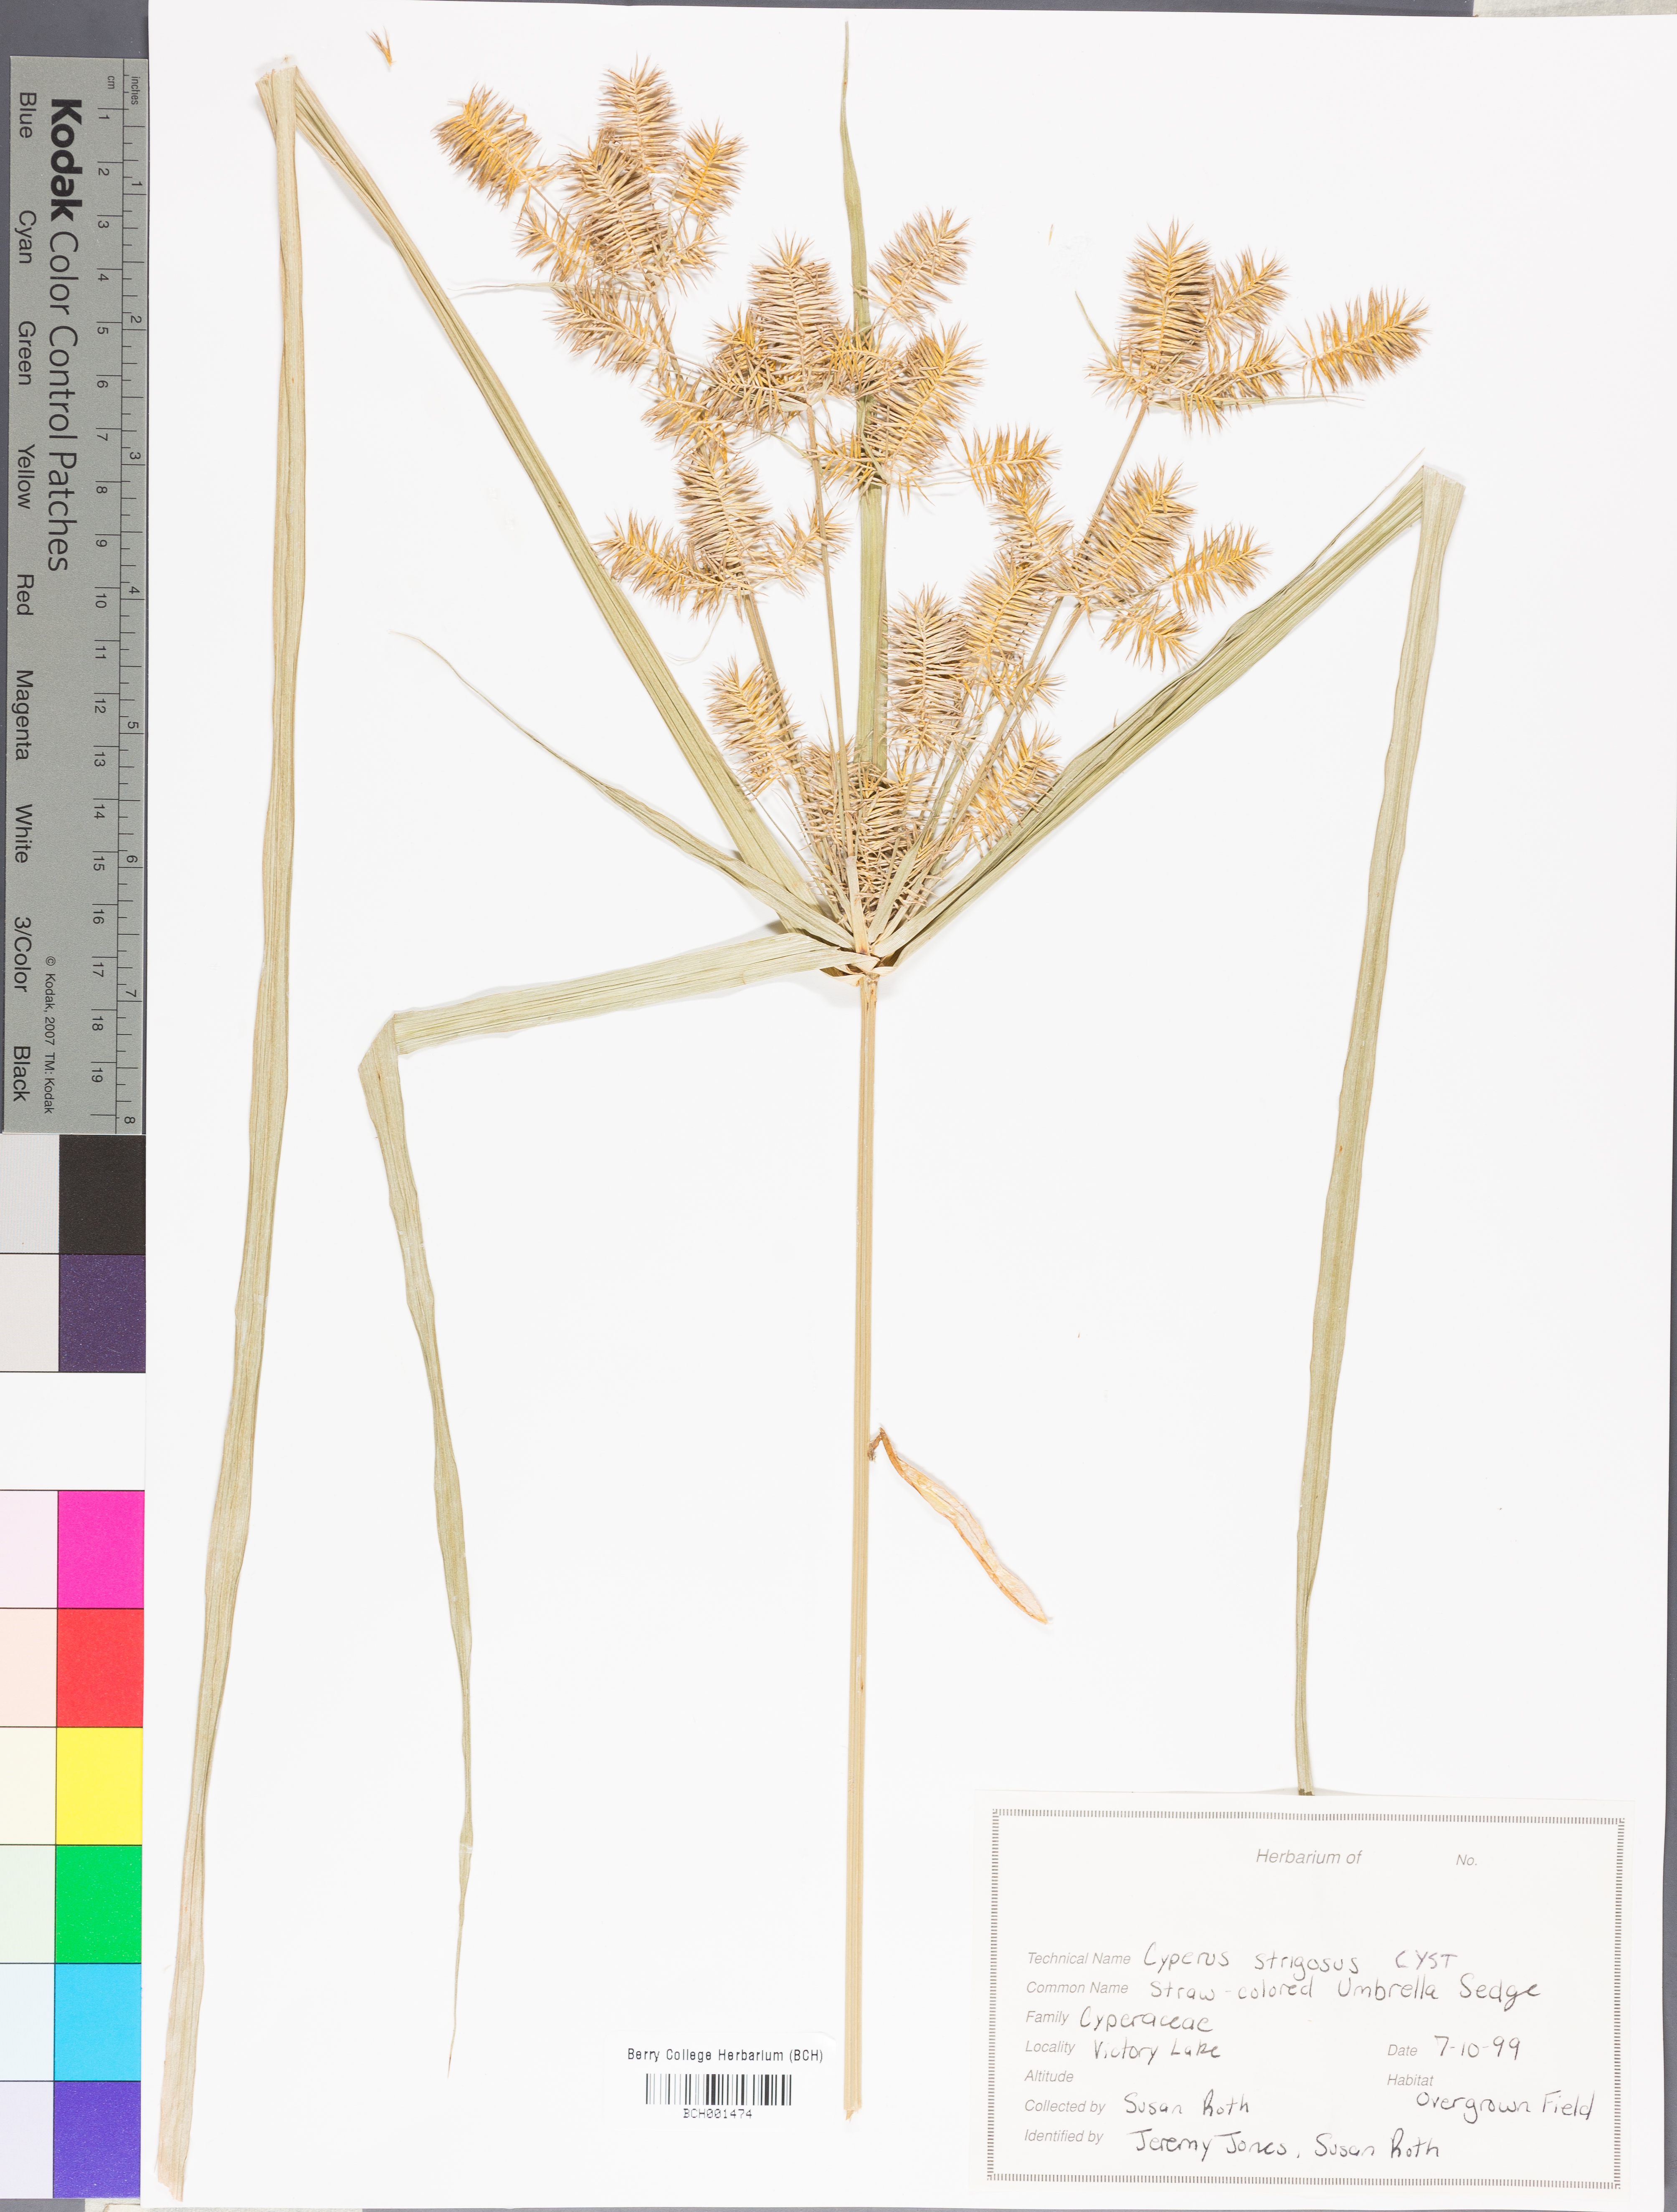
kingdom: Plantae
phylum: Tracheophyta
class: Liliopsida
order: Poales
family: Cyperaceae
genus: Cyperus
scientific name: Cyperus strigosus
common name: False nutsedge
